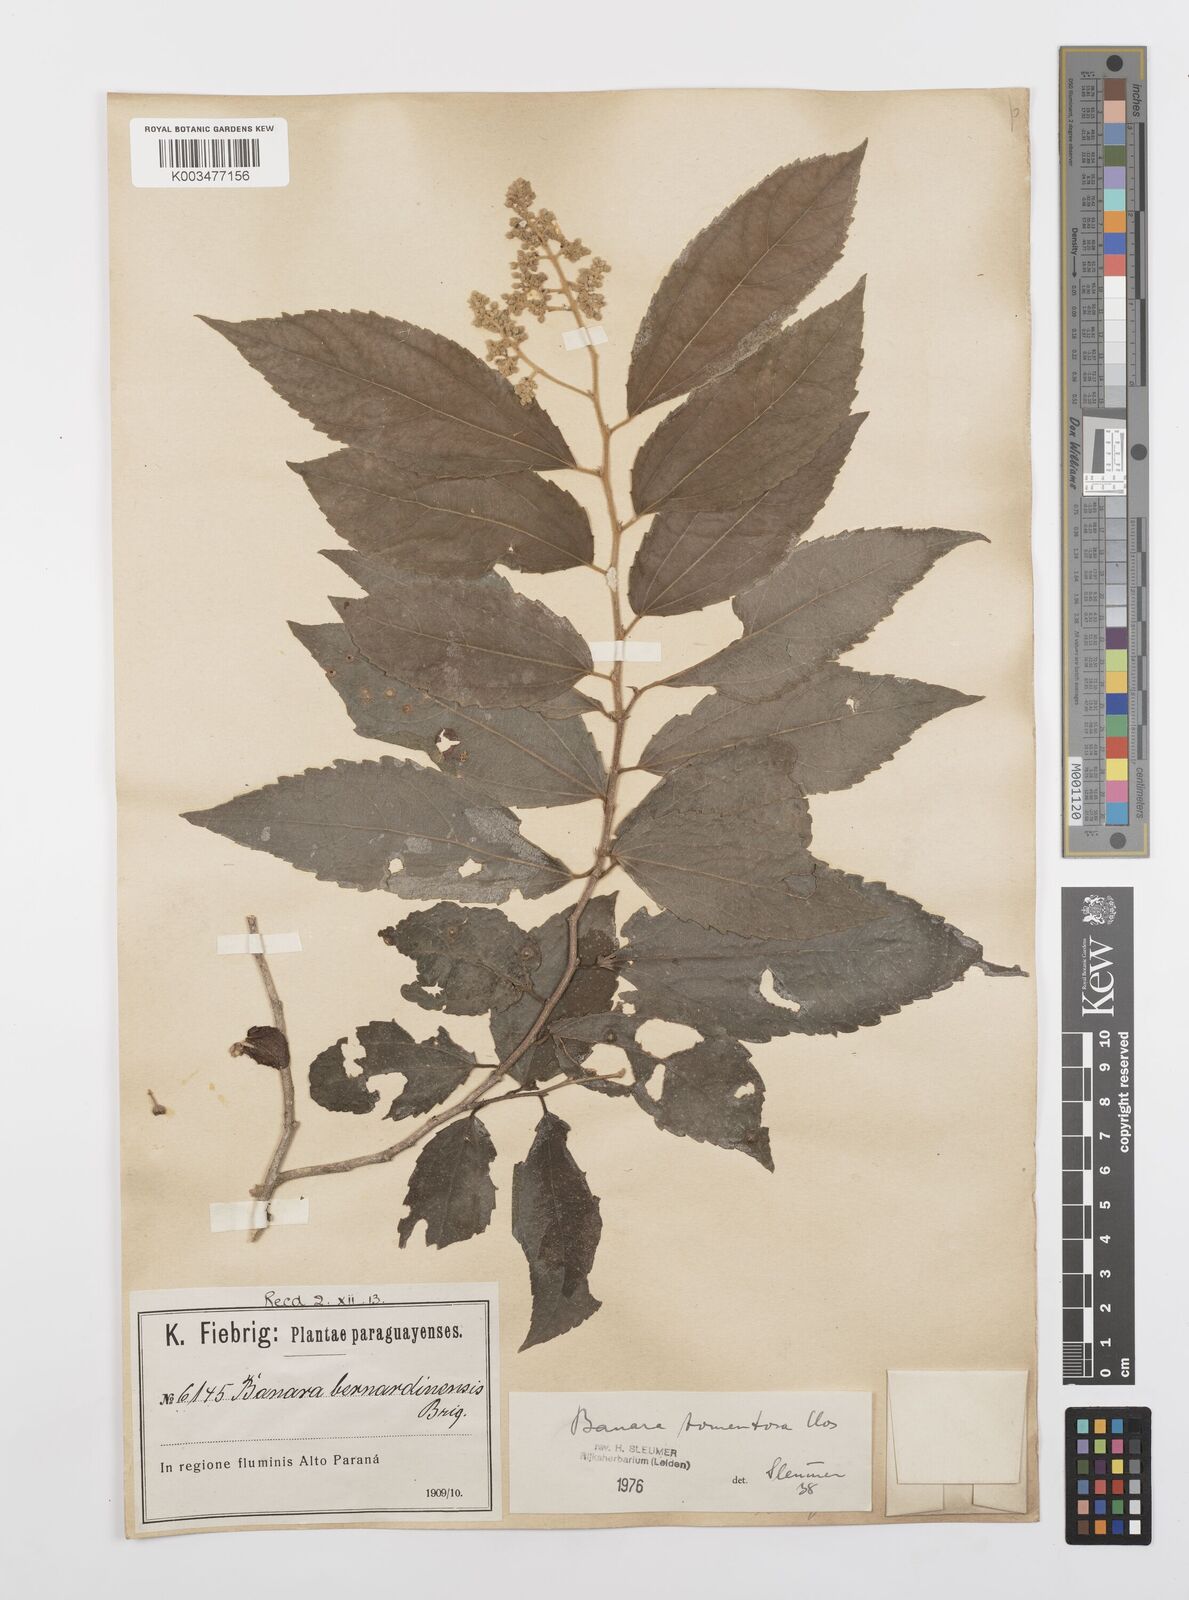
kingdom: Plantae
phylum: Tracheophyta
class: Magnoliopsida
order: Malpighiales
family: Salicaceae
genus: Banara
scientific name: Banara tomentosa
